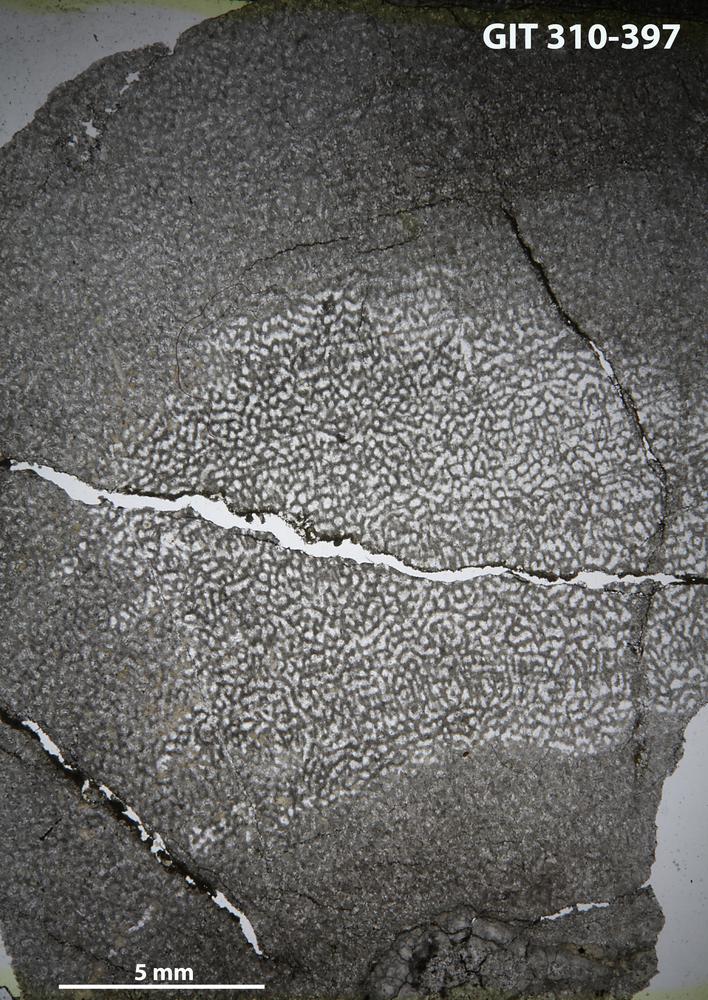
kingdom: Animalia
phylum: Porifera
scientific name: Porifera
